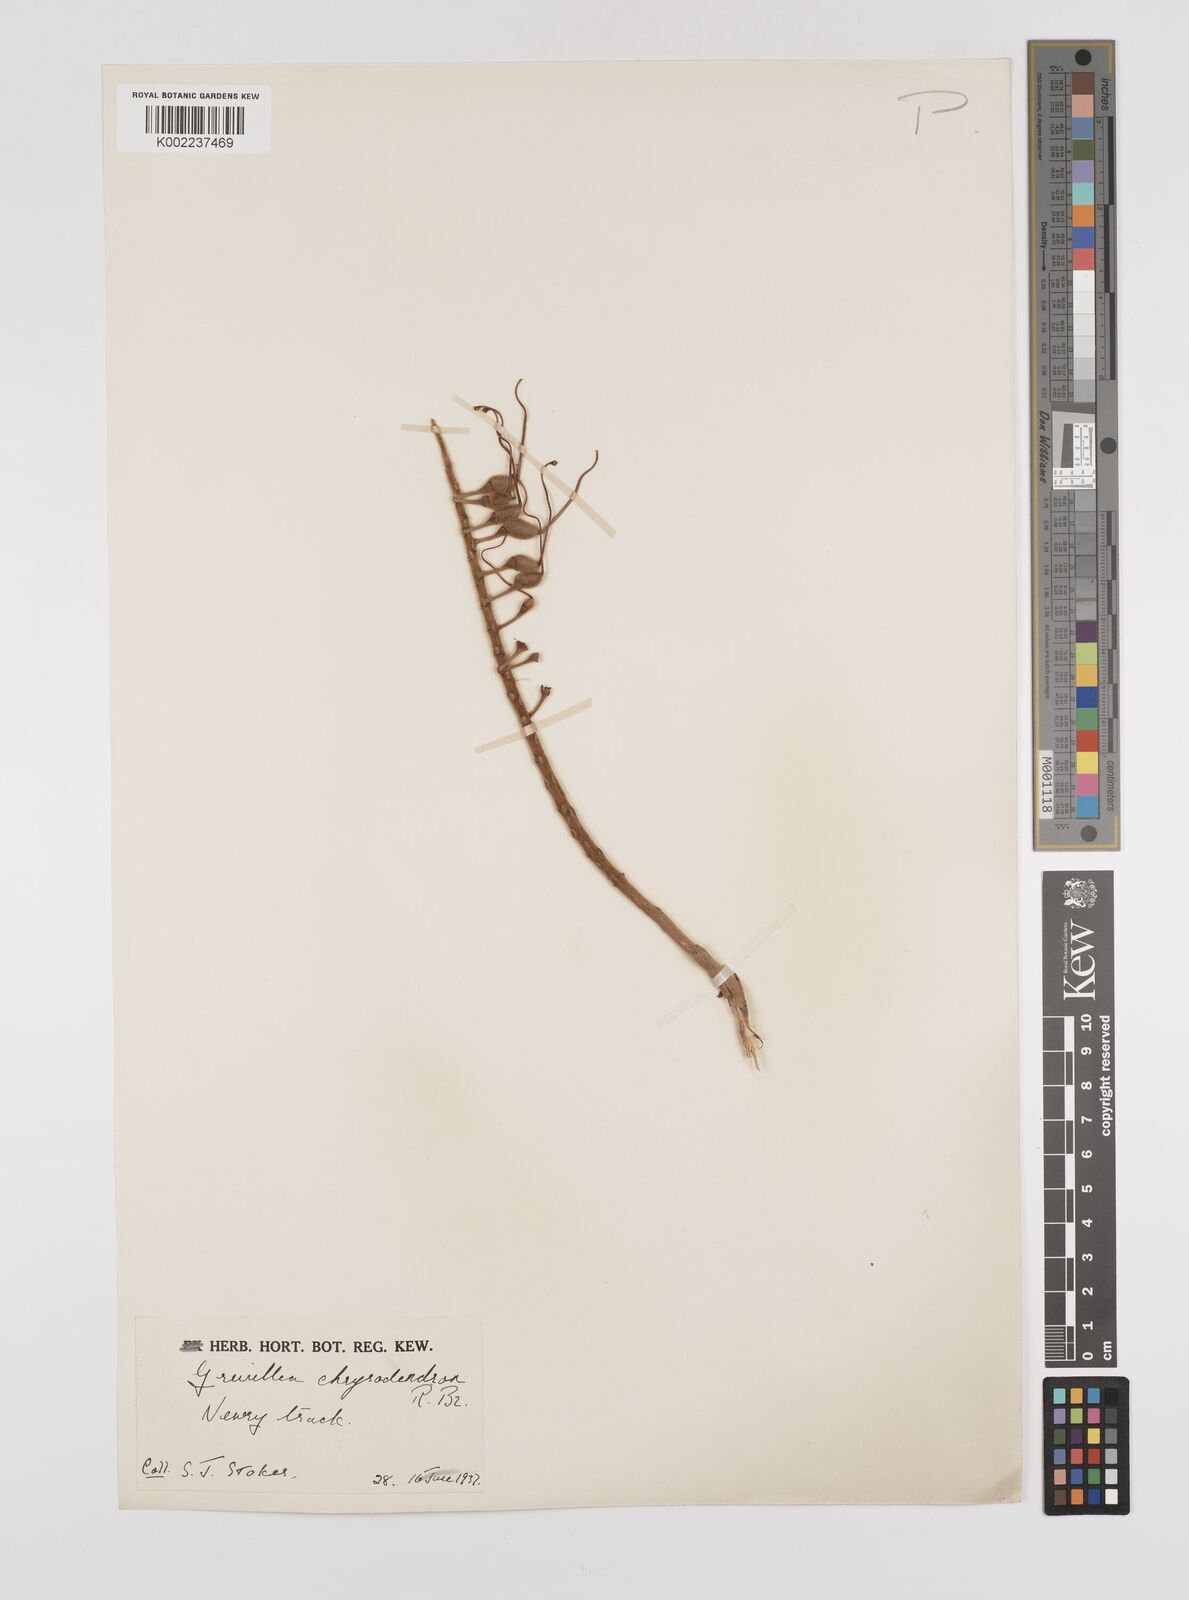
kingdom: Plantae
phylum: Tracheophyta
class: Magnoliopsida
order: Proteales
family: Proteaceae
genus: Grevillea
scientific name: Grevillea pteridifolia
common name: Golden grevillea
